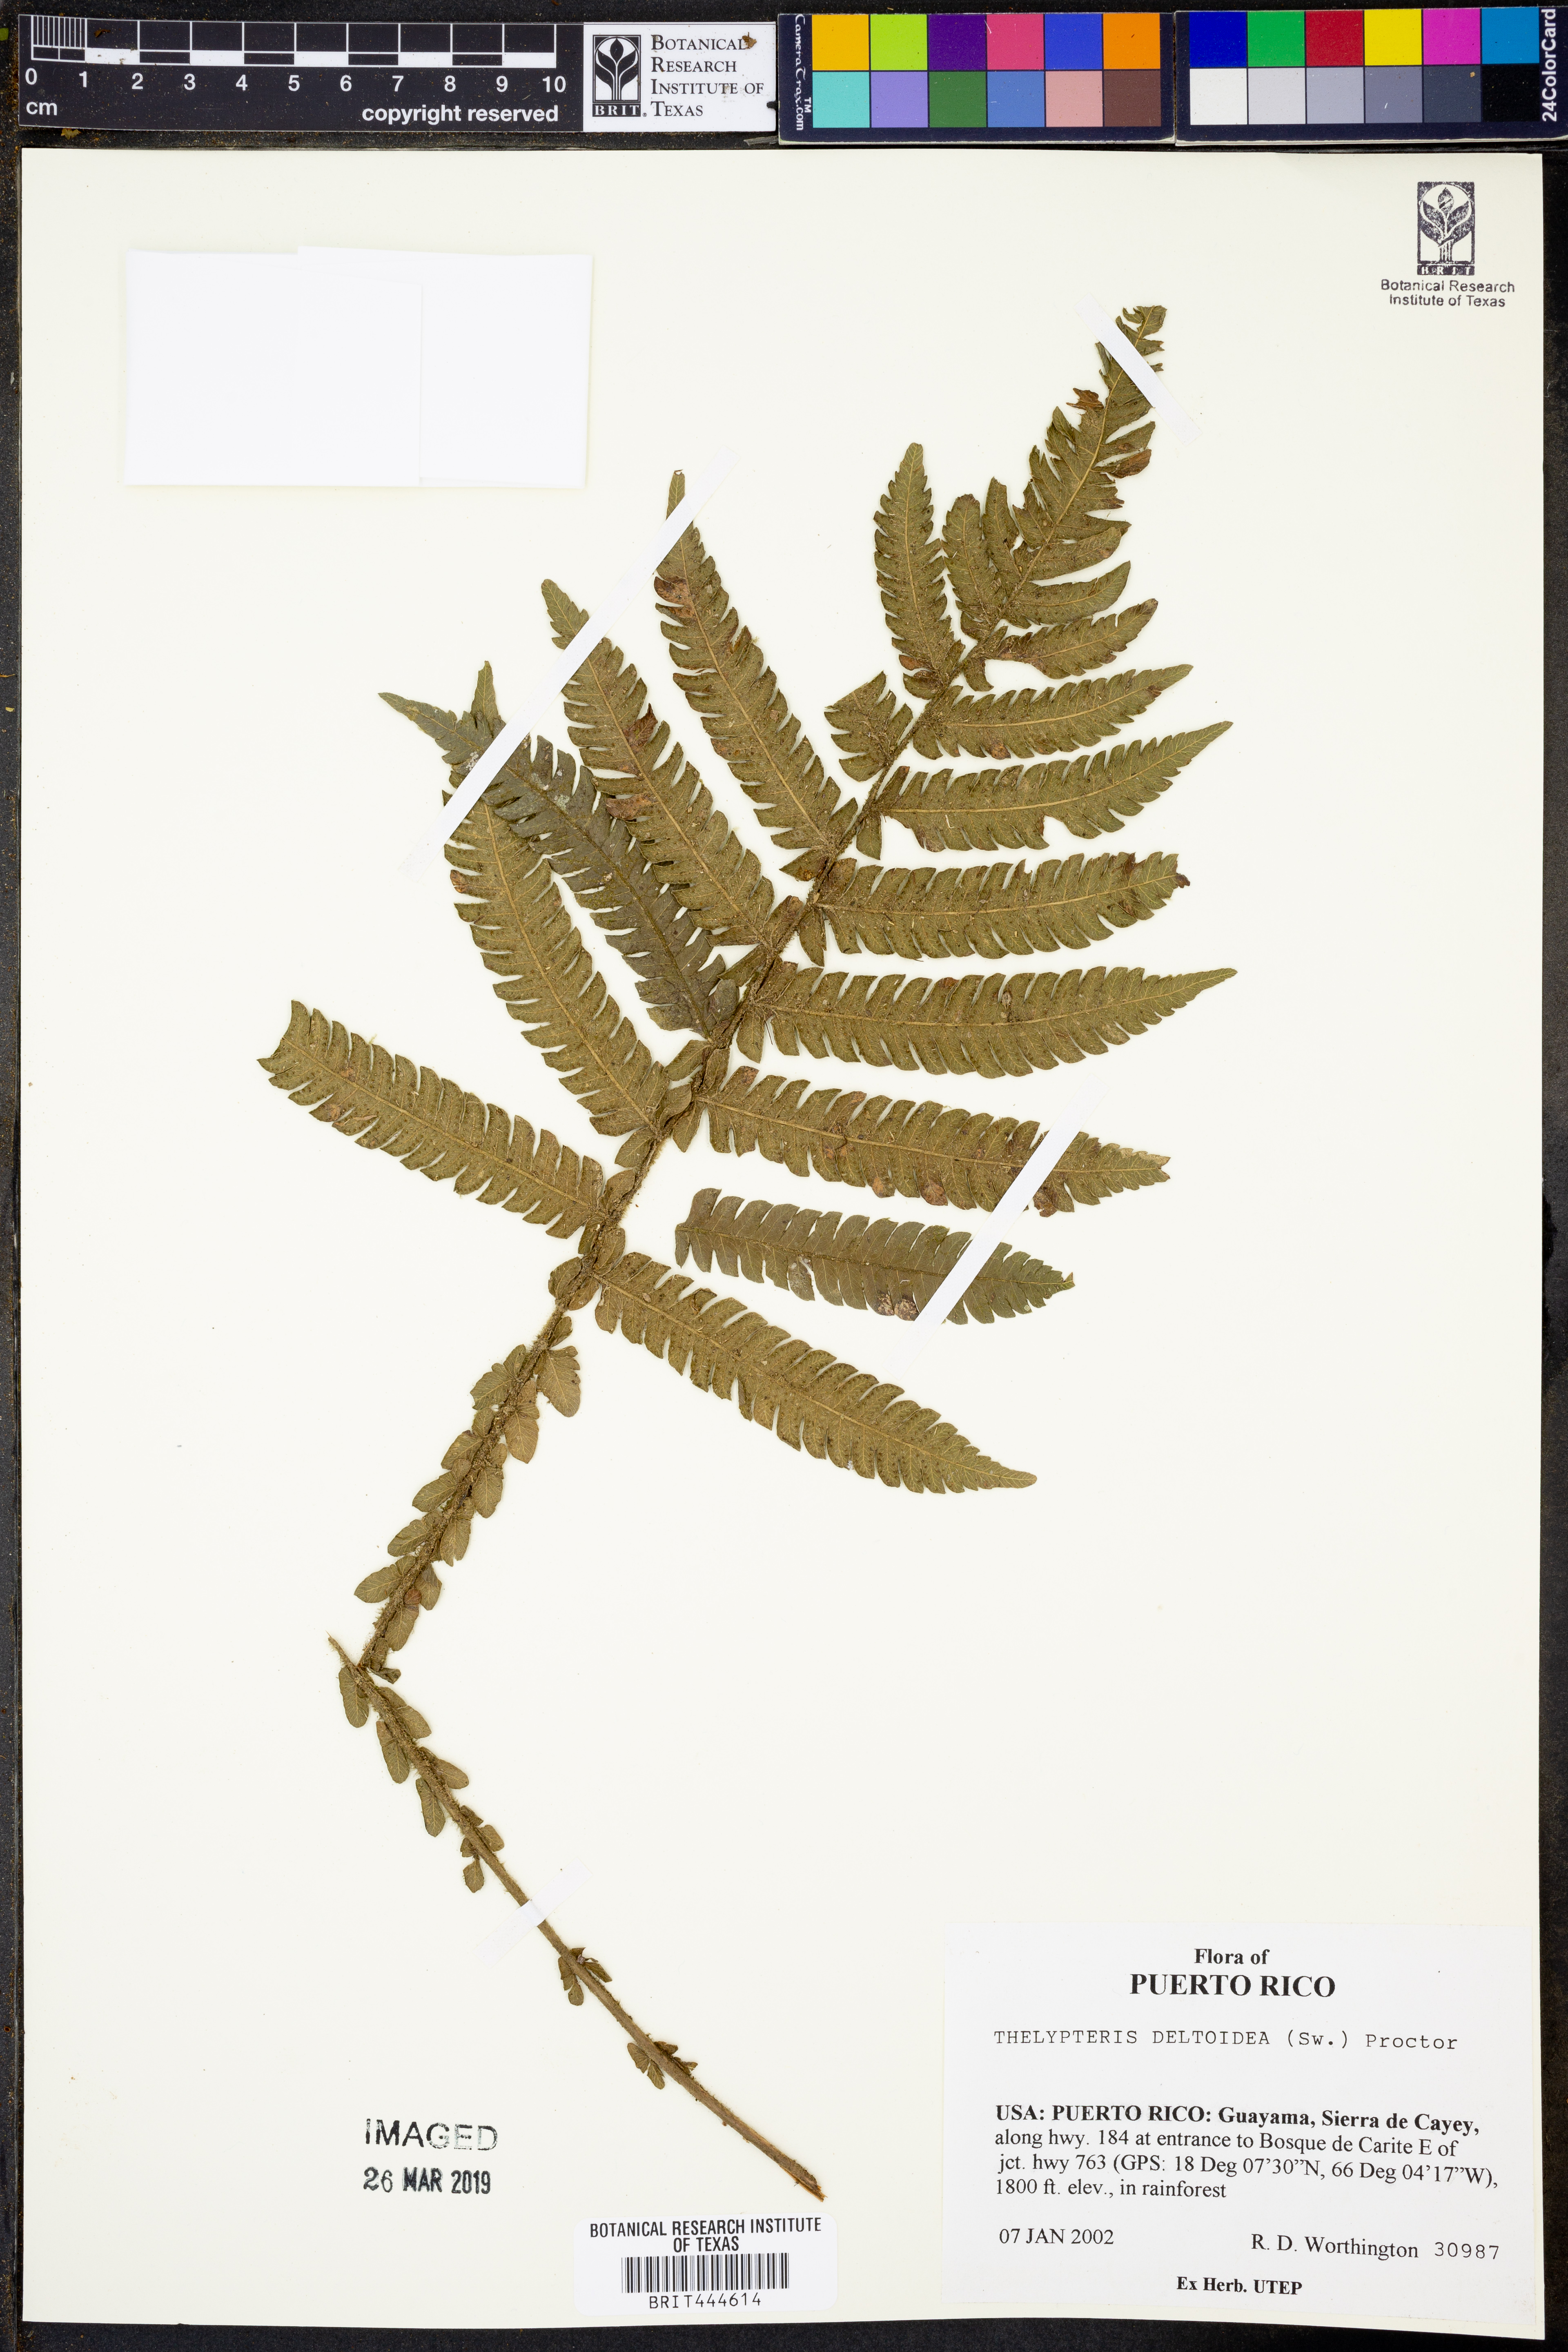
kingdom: Plantae
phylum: Tracheophyta
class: Polypodiopsida
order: Polypodiales
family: Thelypteridaceae
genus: Steiropteris
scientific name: Steiropteris deltoidea
